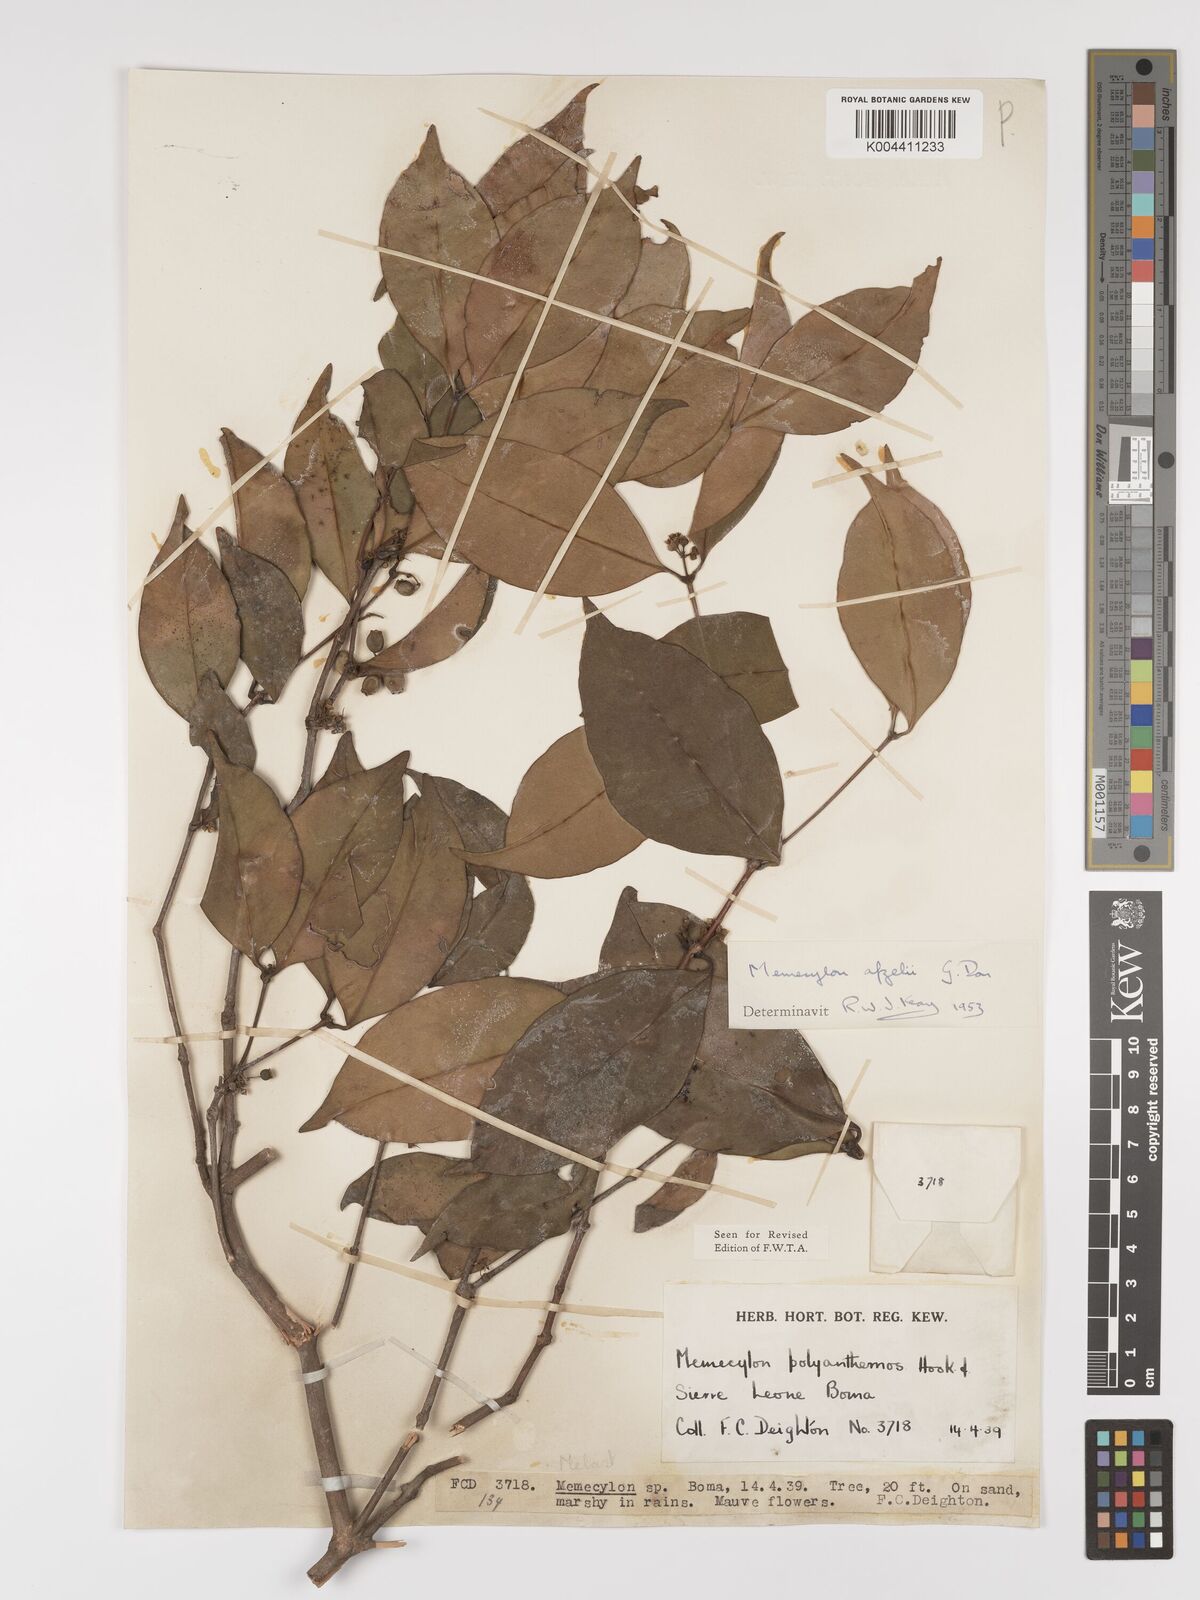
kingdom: Plantae
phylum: Tracheophyta
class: Magnoliopsida
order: Myrtales
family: Melastomataceae
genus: Memecylon
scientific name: Memecylon afzelii
